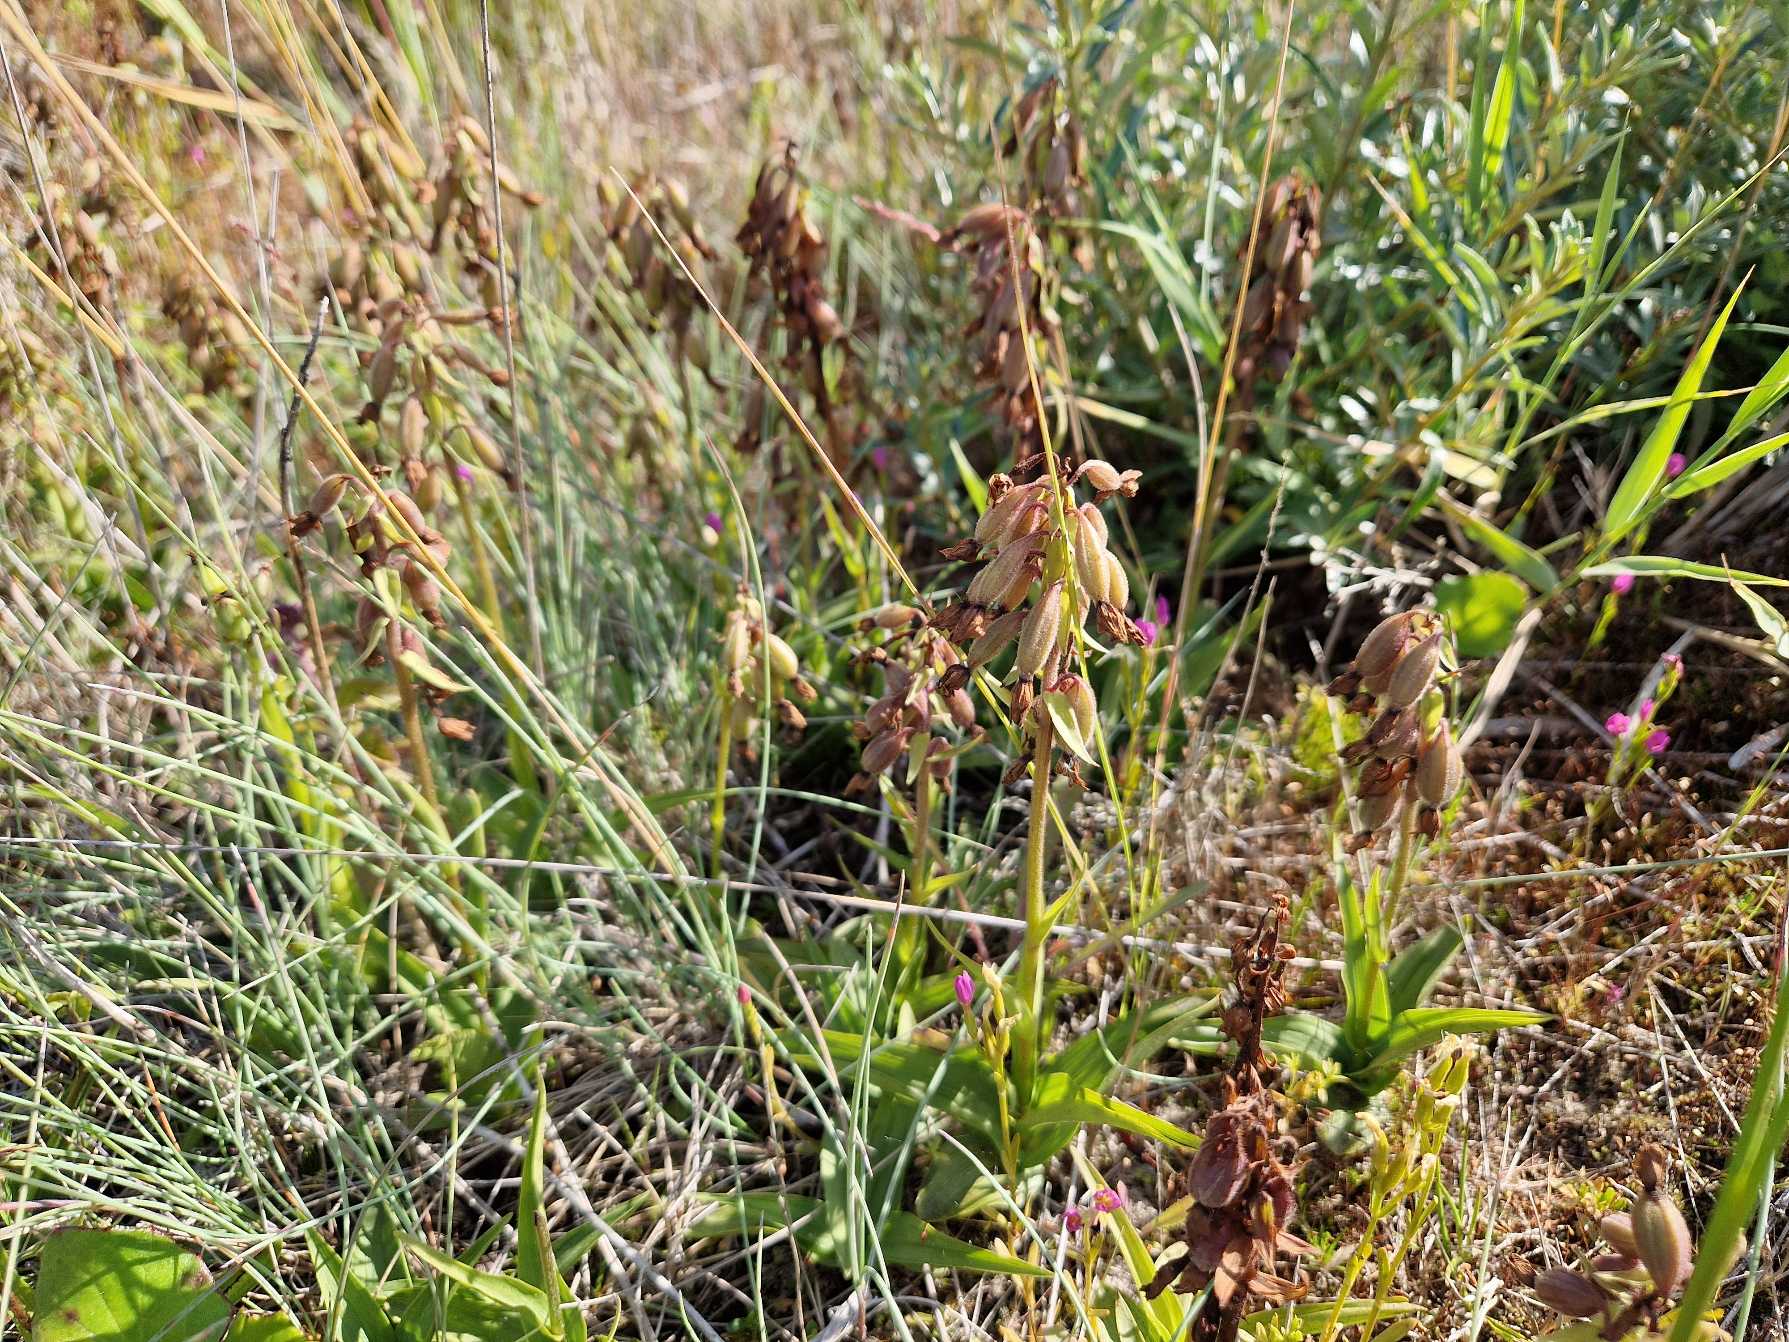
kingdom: Plantae
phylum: Tracheophyta
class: Liliopsida
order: Asparagales
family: Orchidaceae
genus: Epipactis
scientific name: Epipactis palustris
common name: Sump-hullæbe
